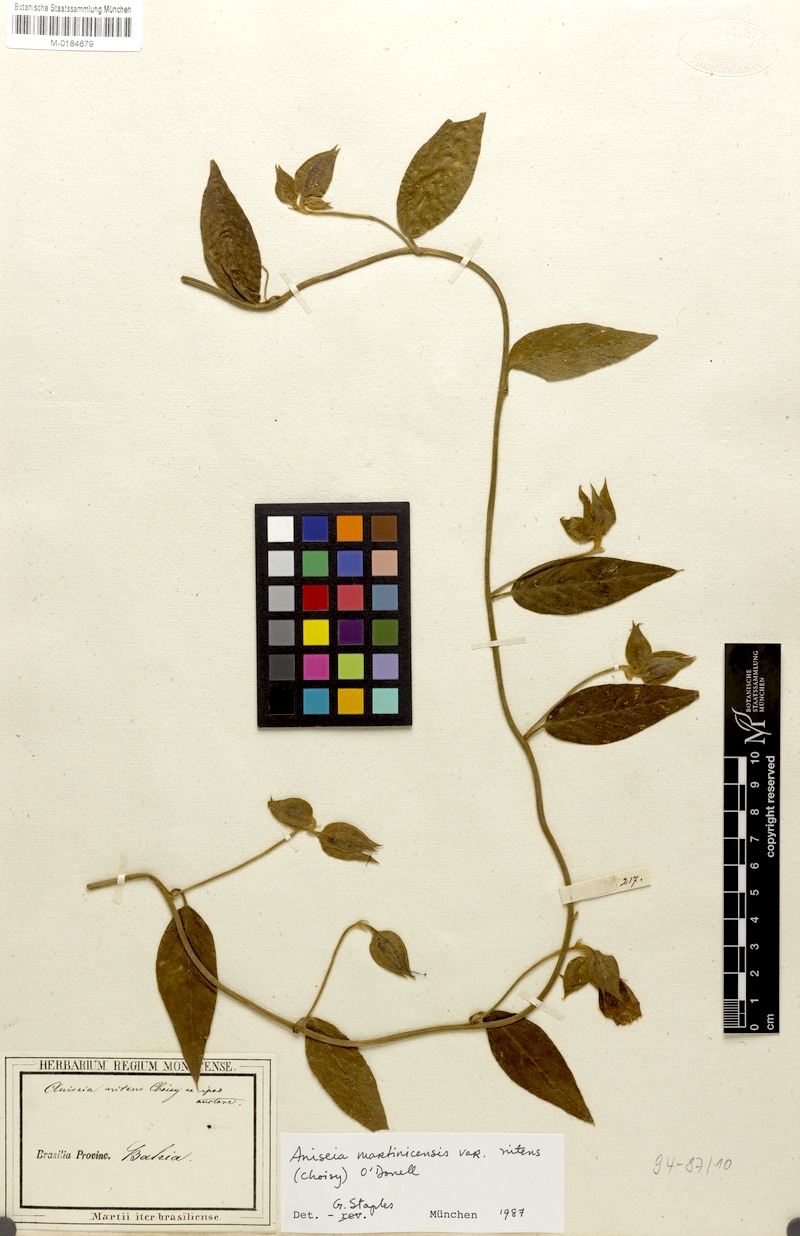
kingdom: Plantae
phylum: Tracheophyta
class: Magnoliopsida
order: Solanales
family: Convolvulaceae
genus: Aniseia
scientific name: Aniseia martinicensis
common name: Kulayadambu
